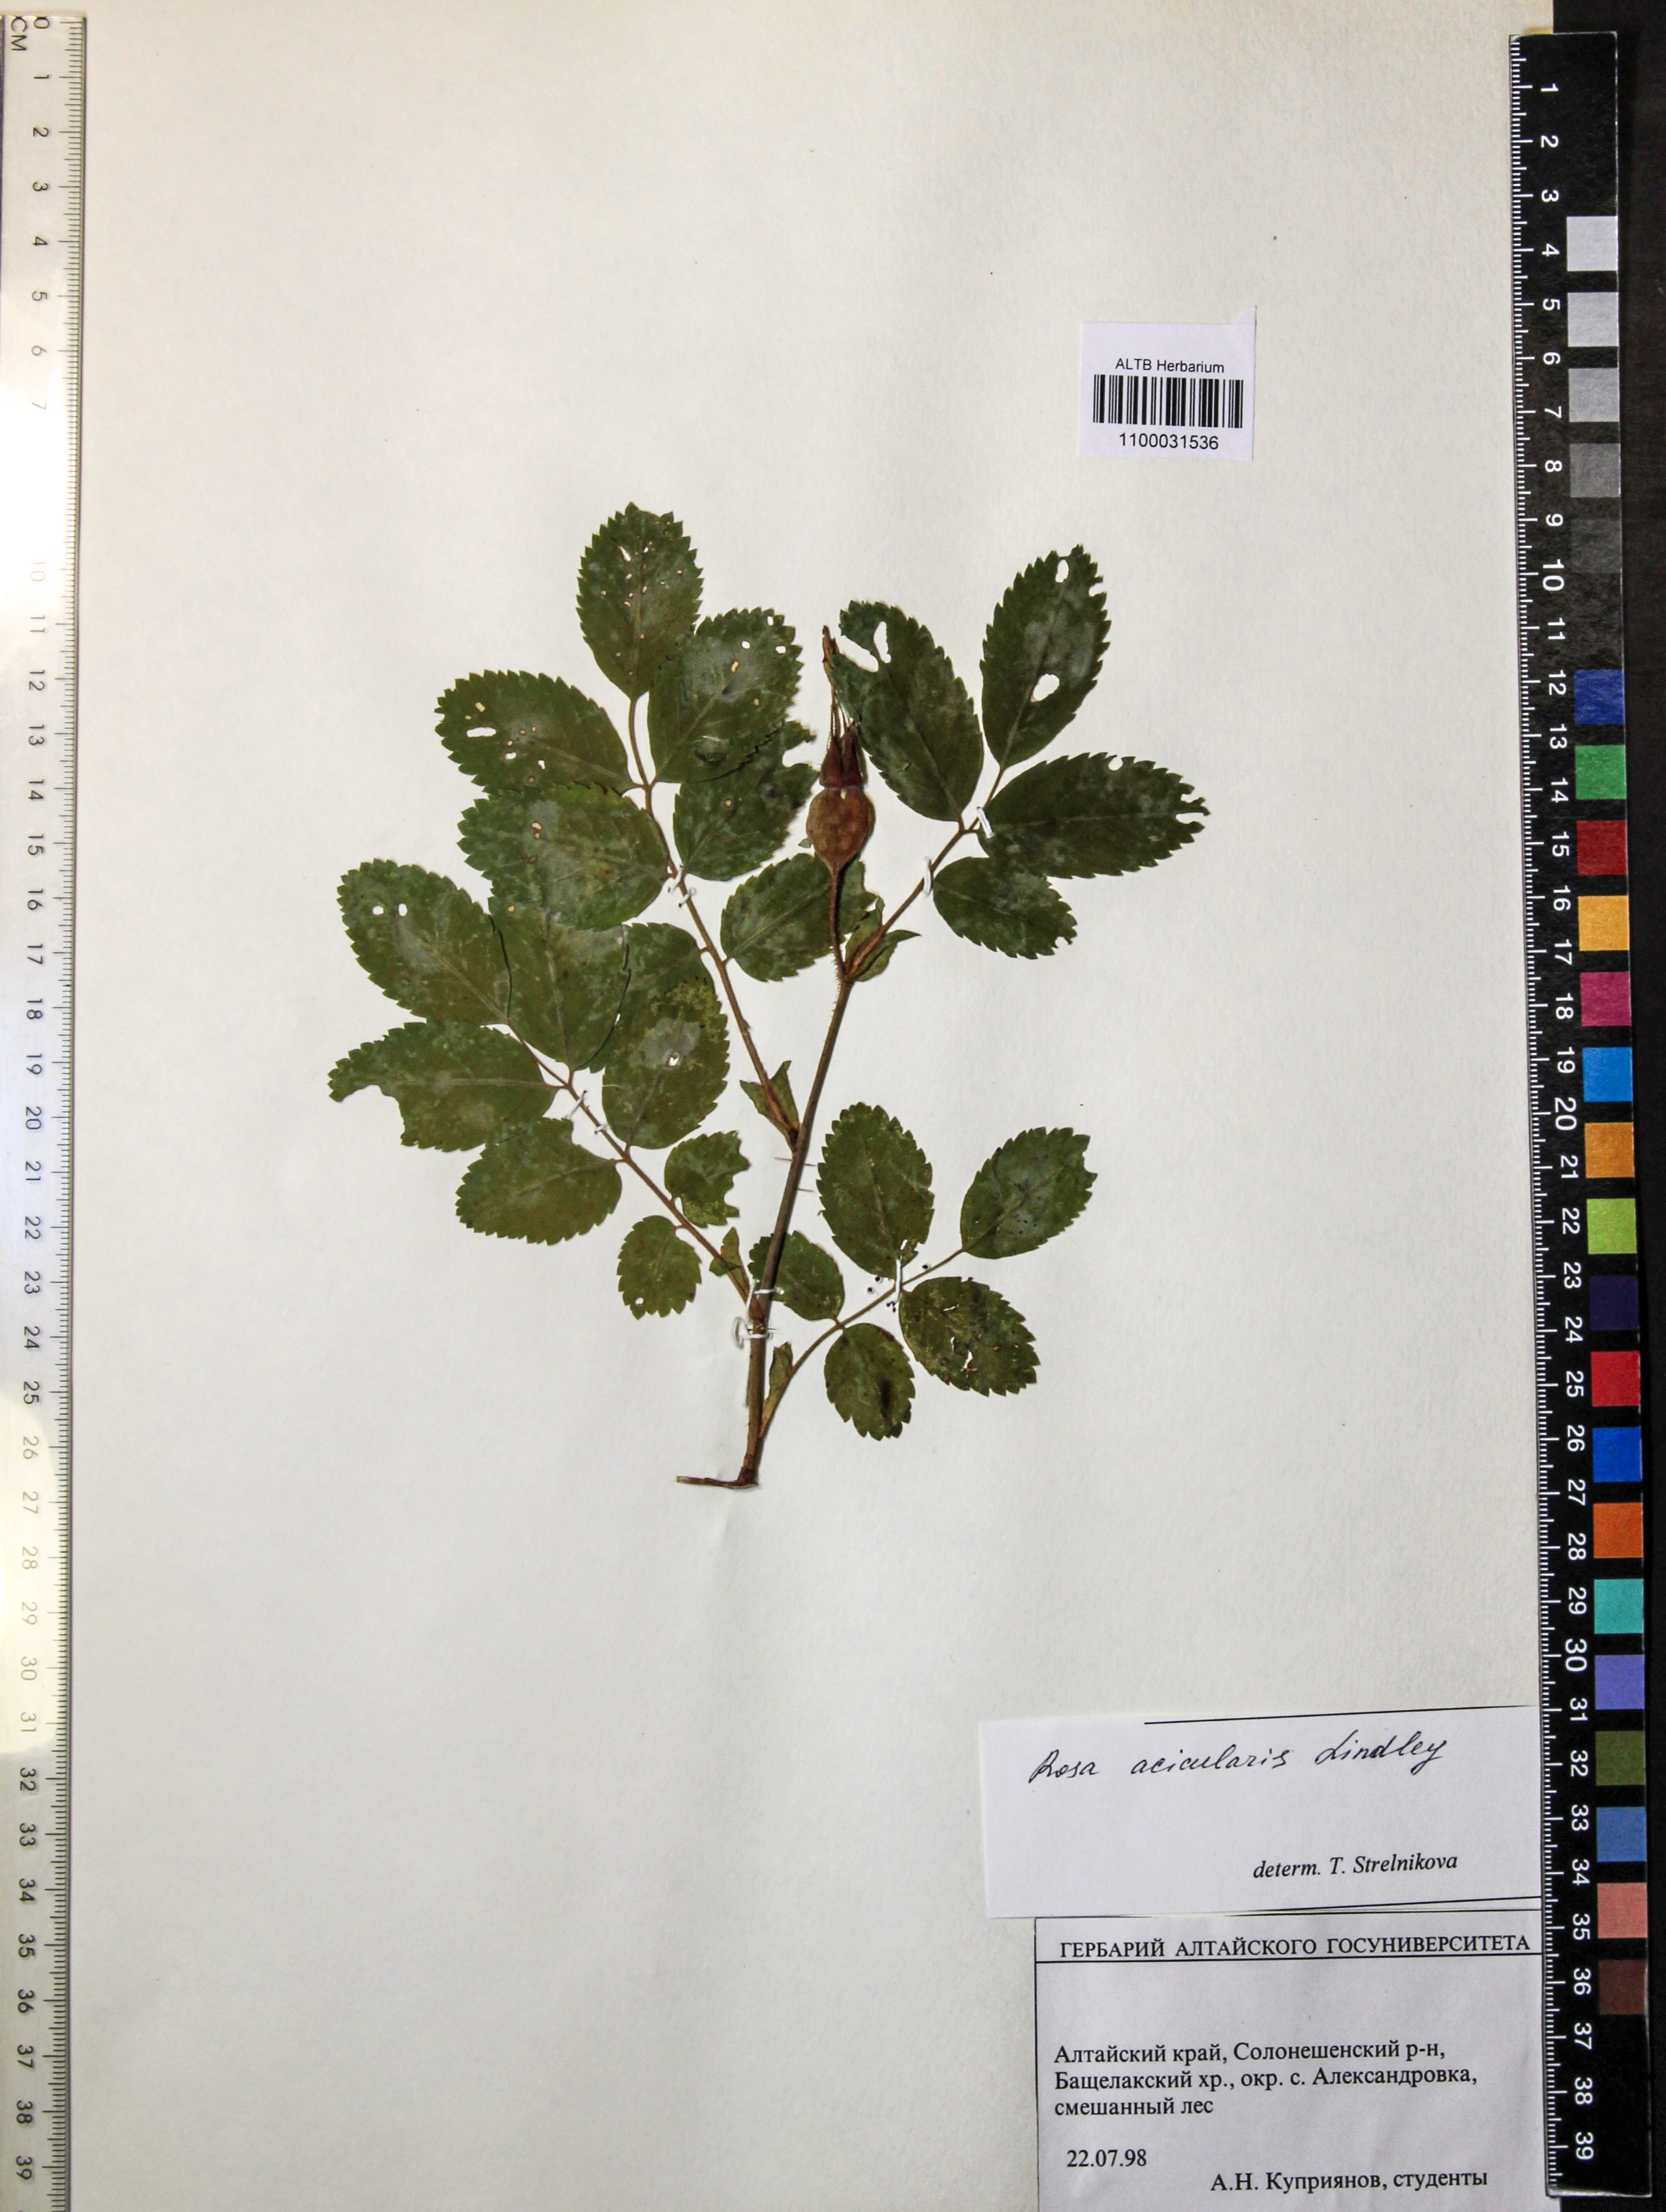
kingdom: Plantae
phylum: Tracheophyta
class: Magnoliopsida
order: Rosales
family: Rosaceae
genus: Rosa
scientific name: Rosa acicularis
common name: Prickly rose
